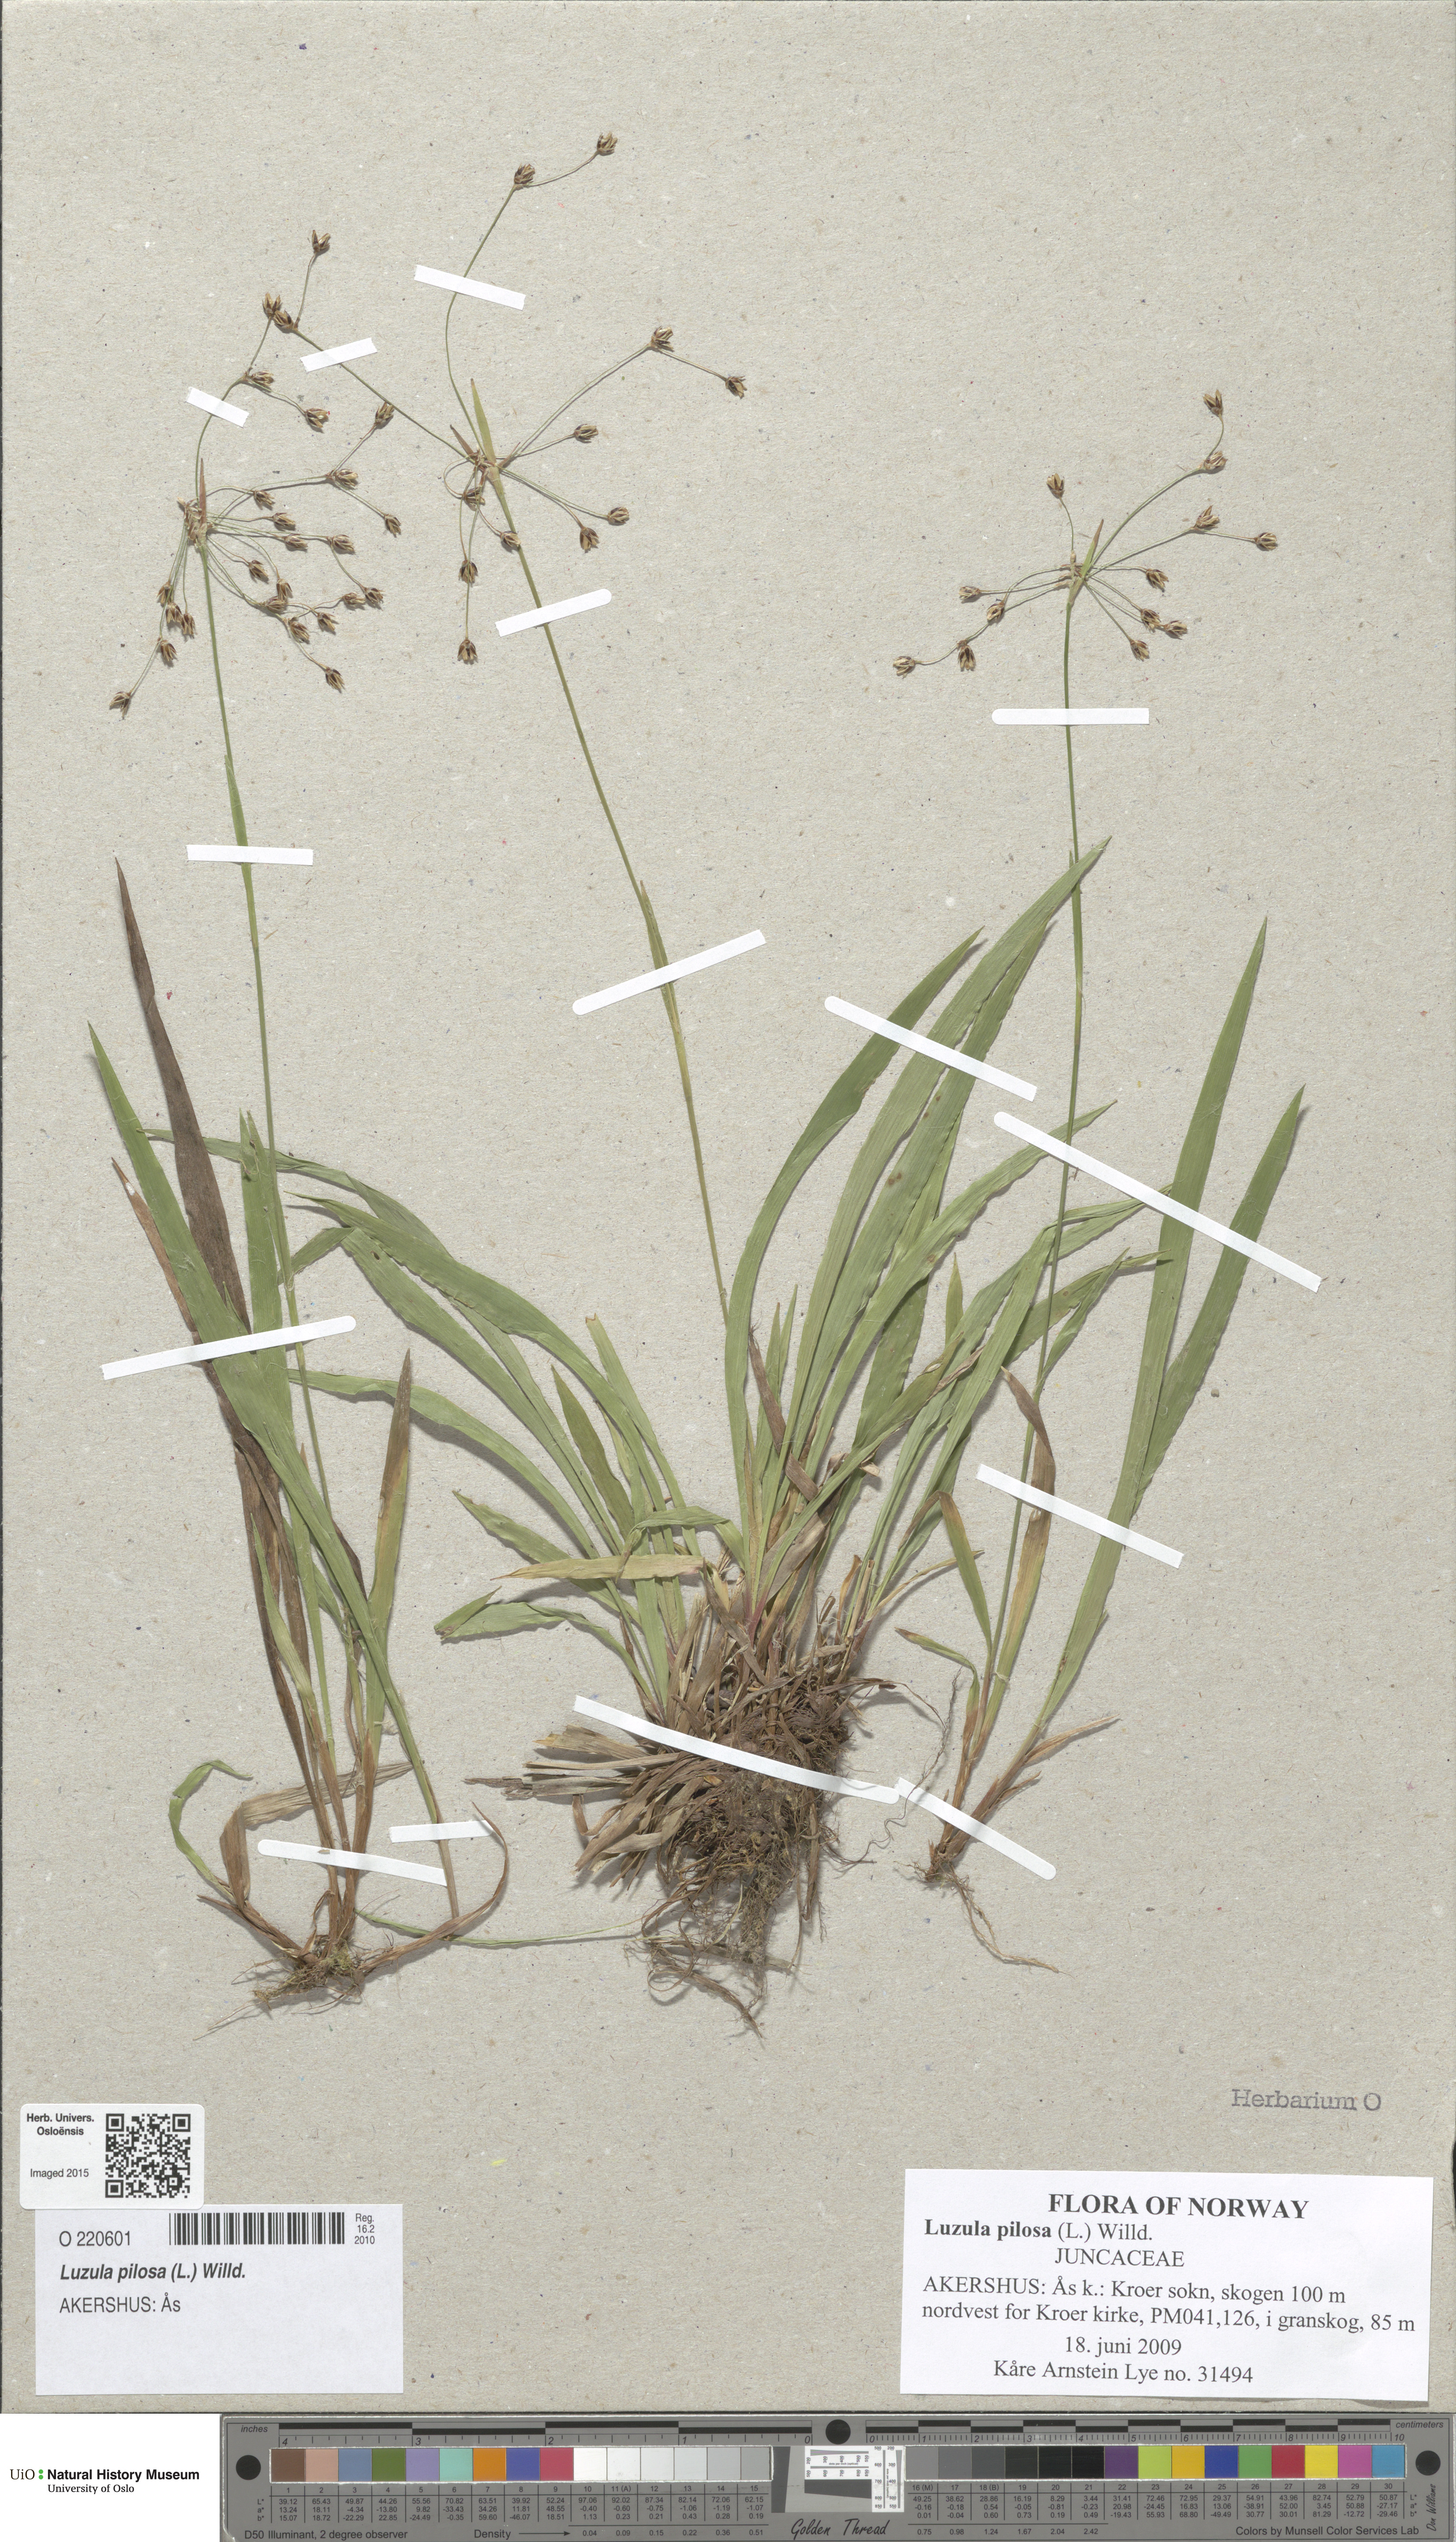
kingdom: Plantae
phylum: Tracheophyta
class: Liliopsida
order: Poales
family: Juncaceae
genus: Luzula
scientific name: Luzula pilosa
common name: Hairy wood-rush
